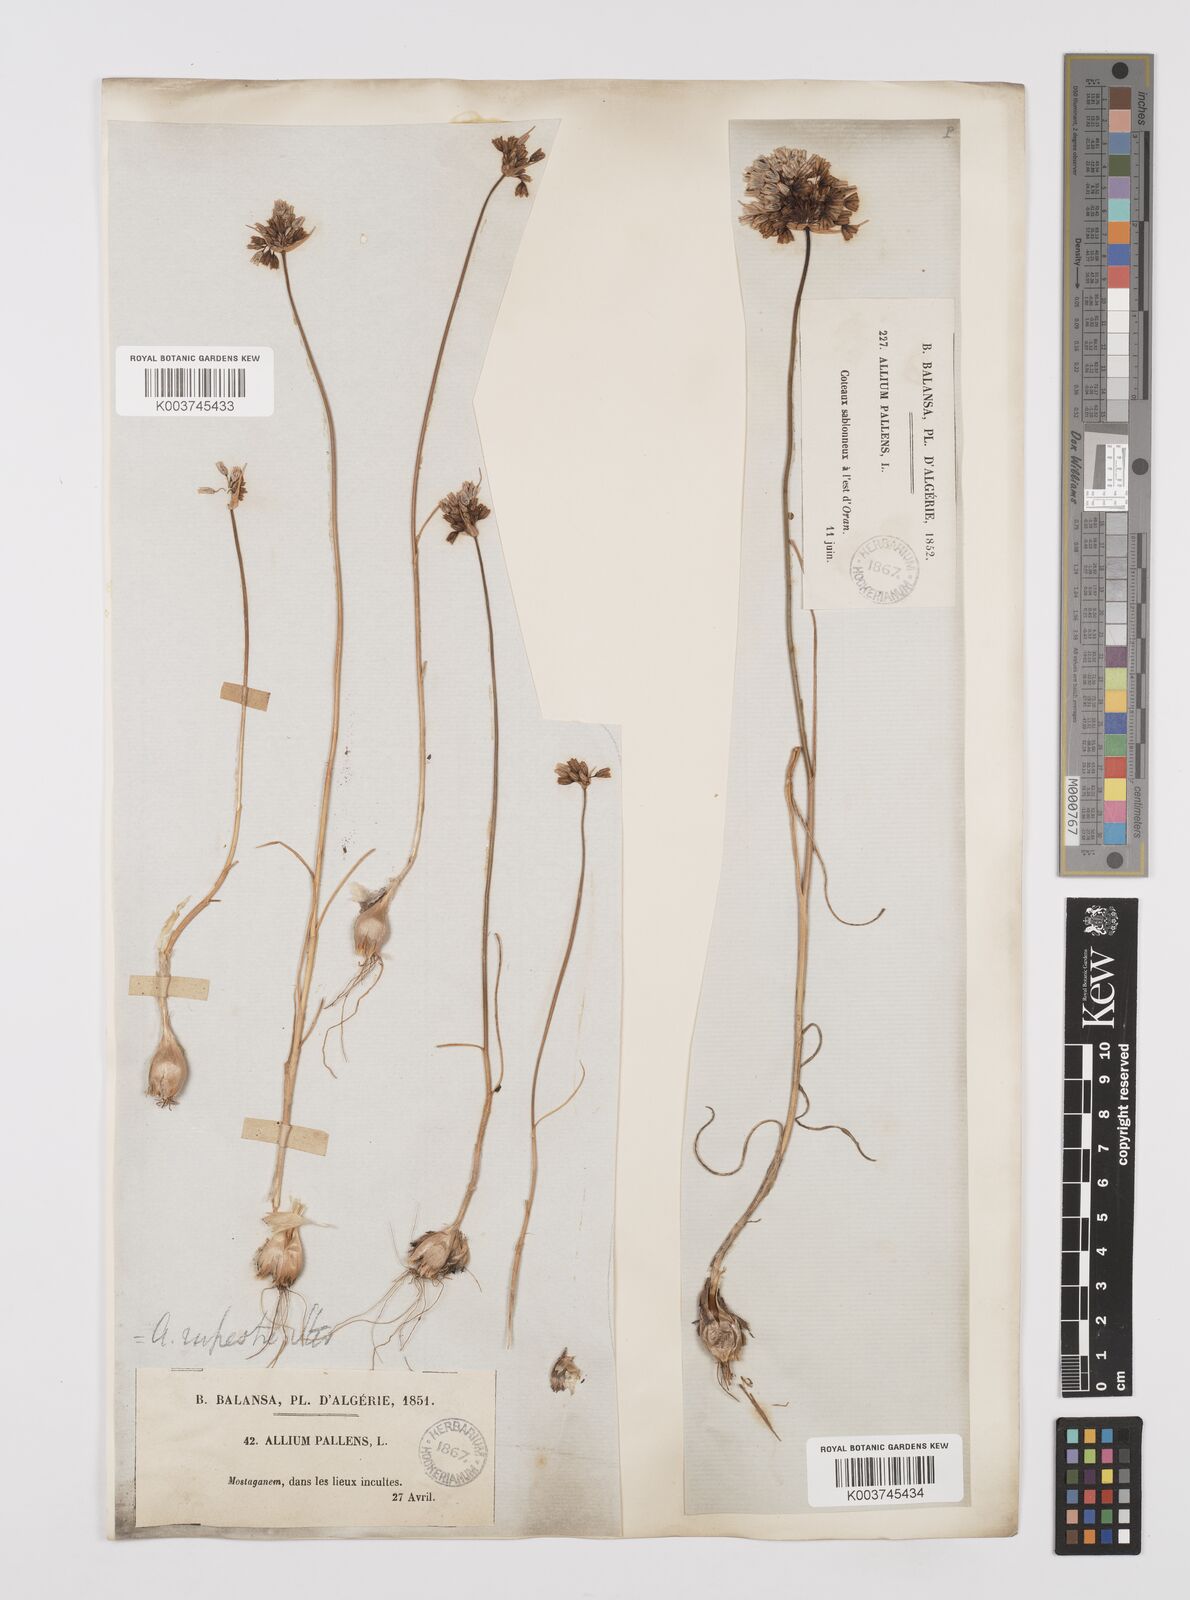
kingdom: Plantae
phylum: Tracheophyta
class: Liliopsida
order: Asparagales
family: Amaryllidaceae
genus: Allium
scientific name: Allium paniculatum
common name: Pale garlic
